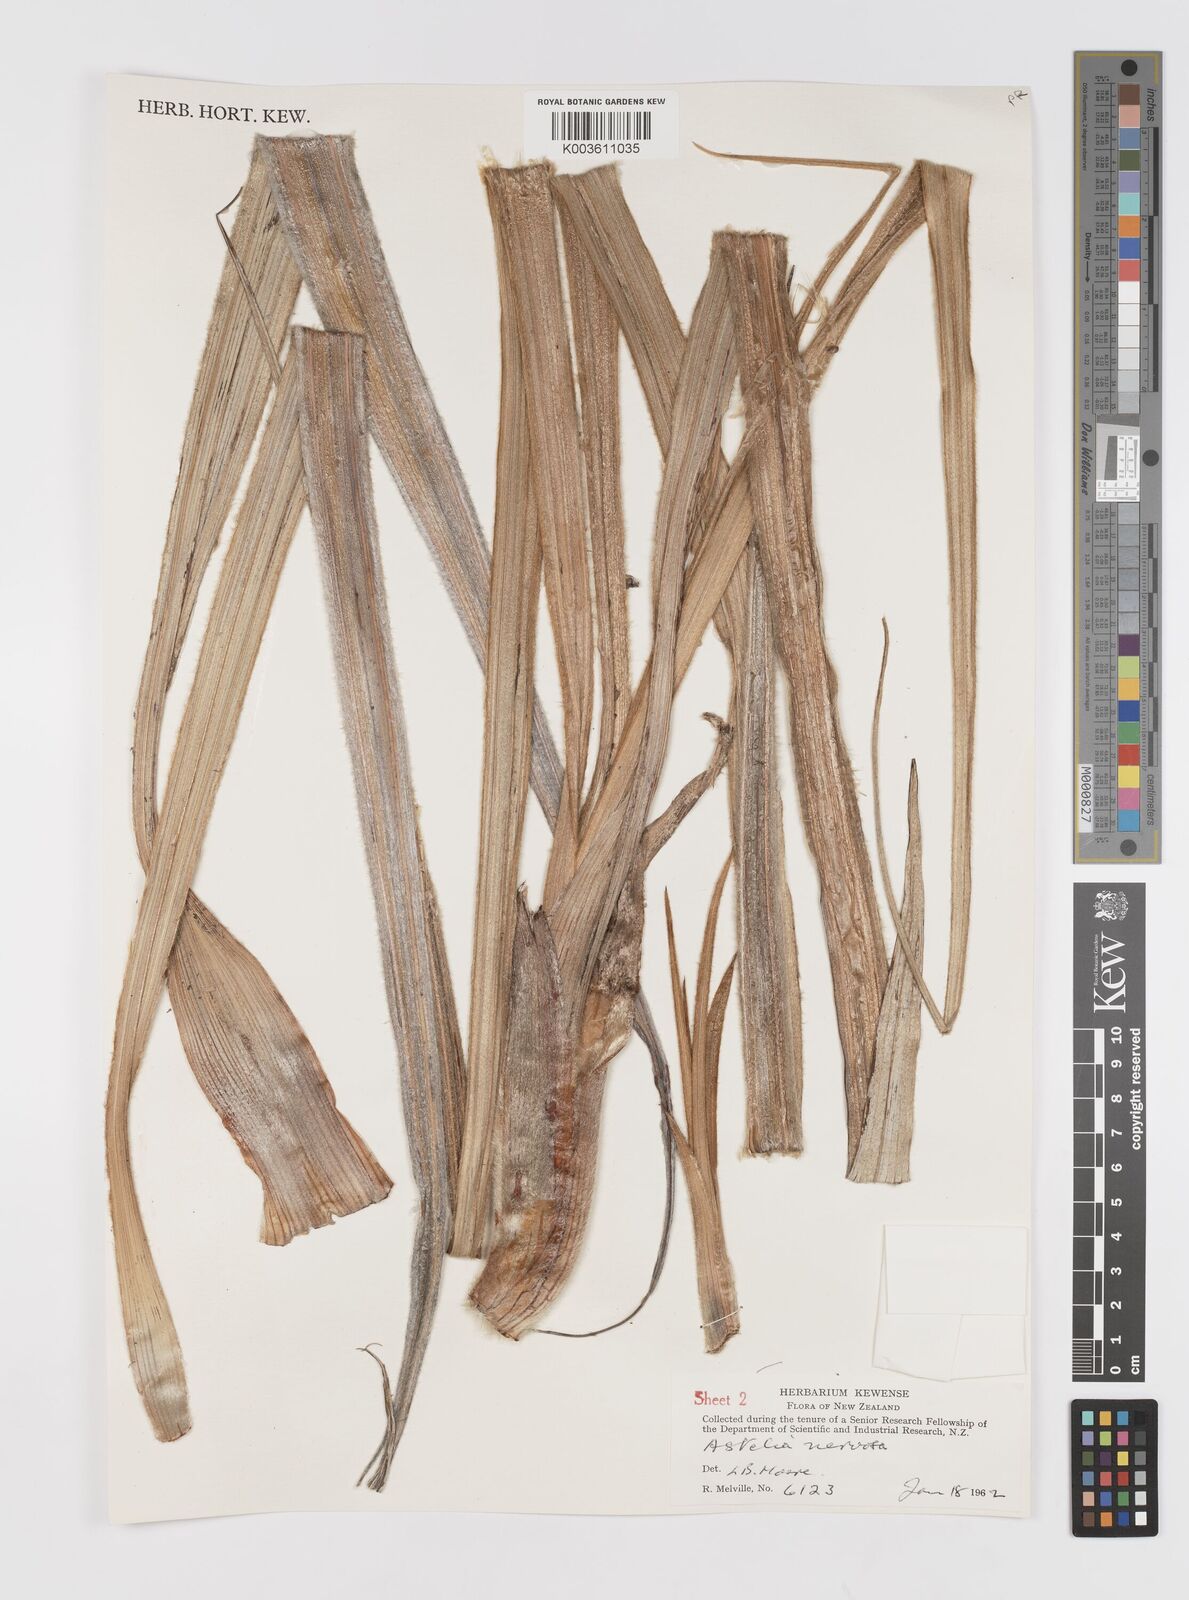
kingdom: Plantae
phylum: Tracheophyta
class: Liliopsida
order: Asparagales
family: Asteliaceae
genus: Astelia
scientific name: Astelia nervosa
